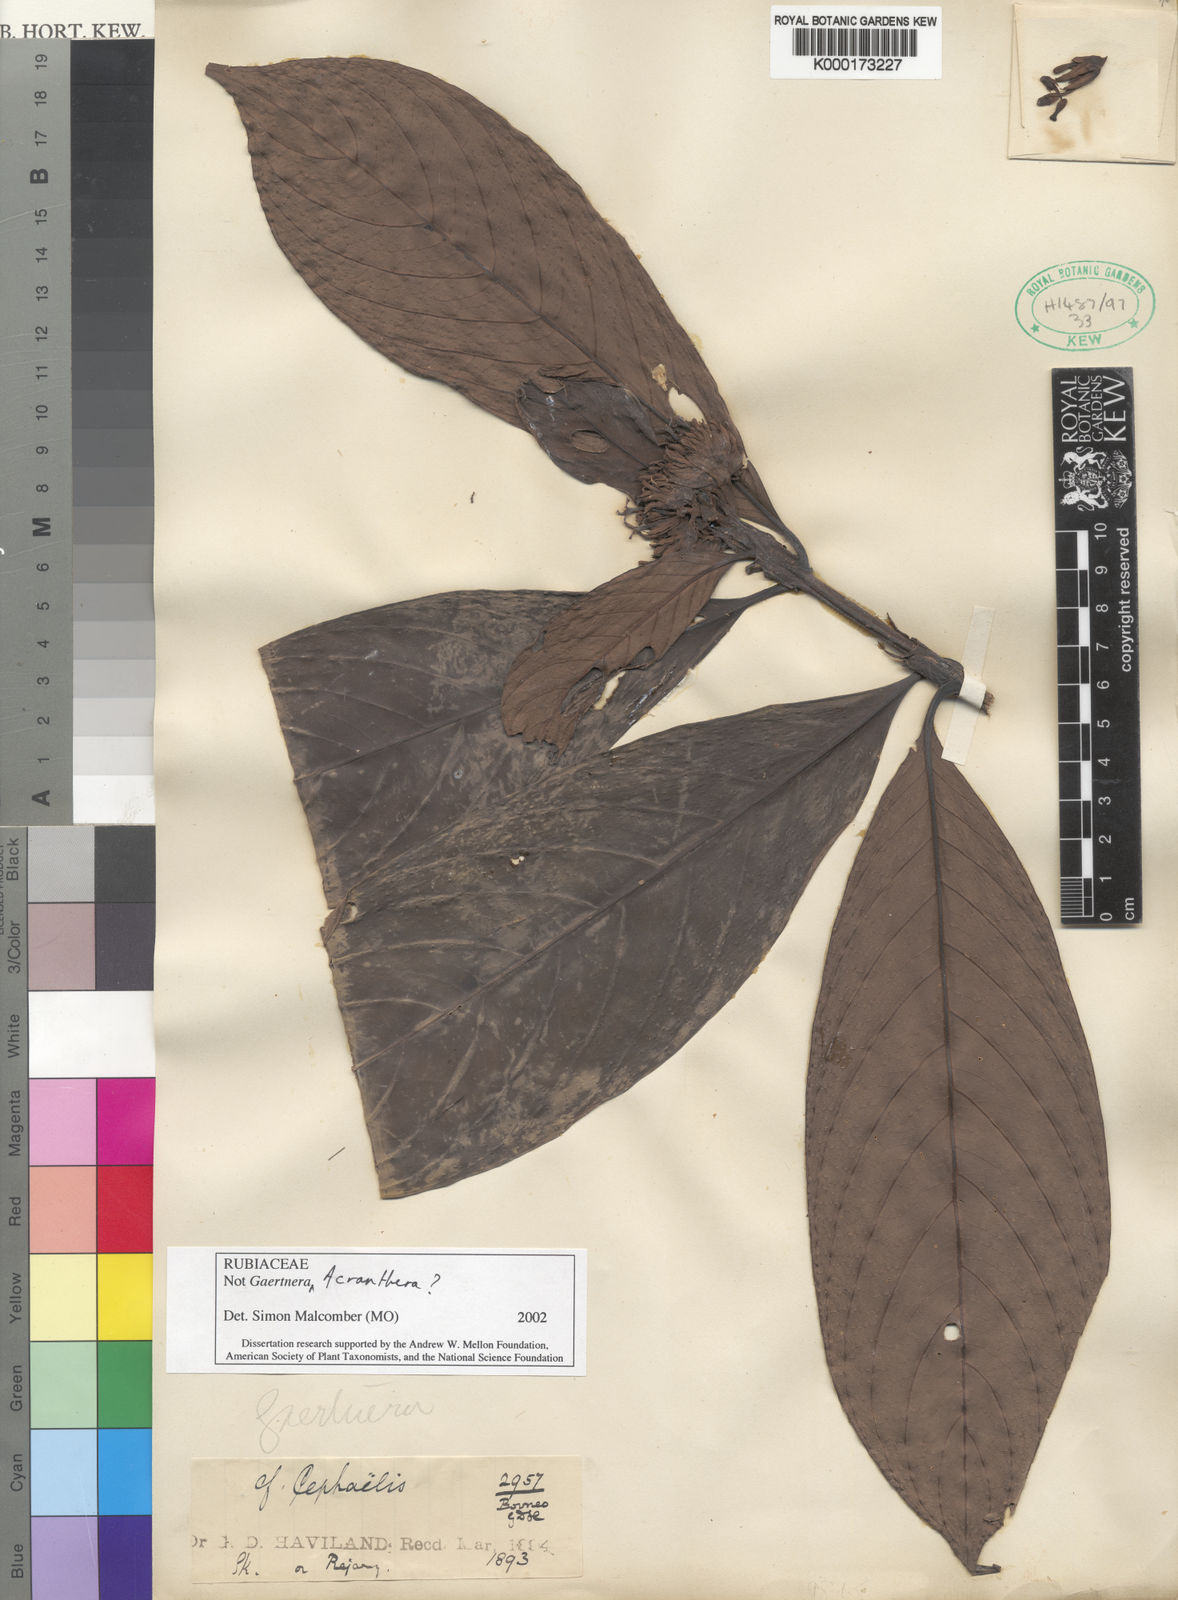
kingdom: Plantae
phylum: Tracheophyta
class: Magnoliopsida
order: Gentianales
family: Rubiaceae
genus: Acranthera
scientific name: Acranthera
